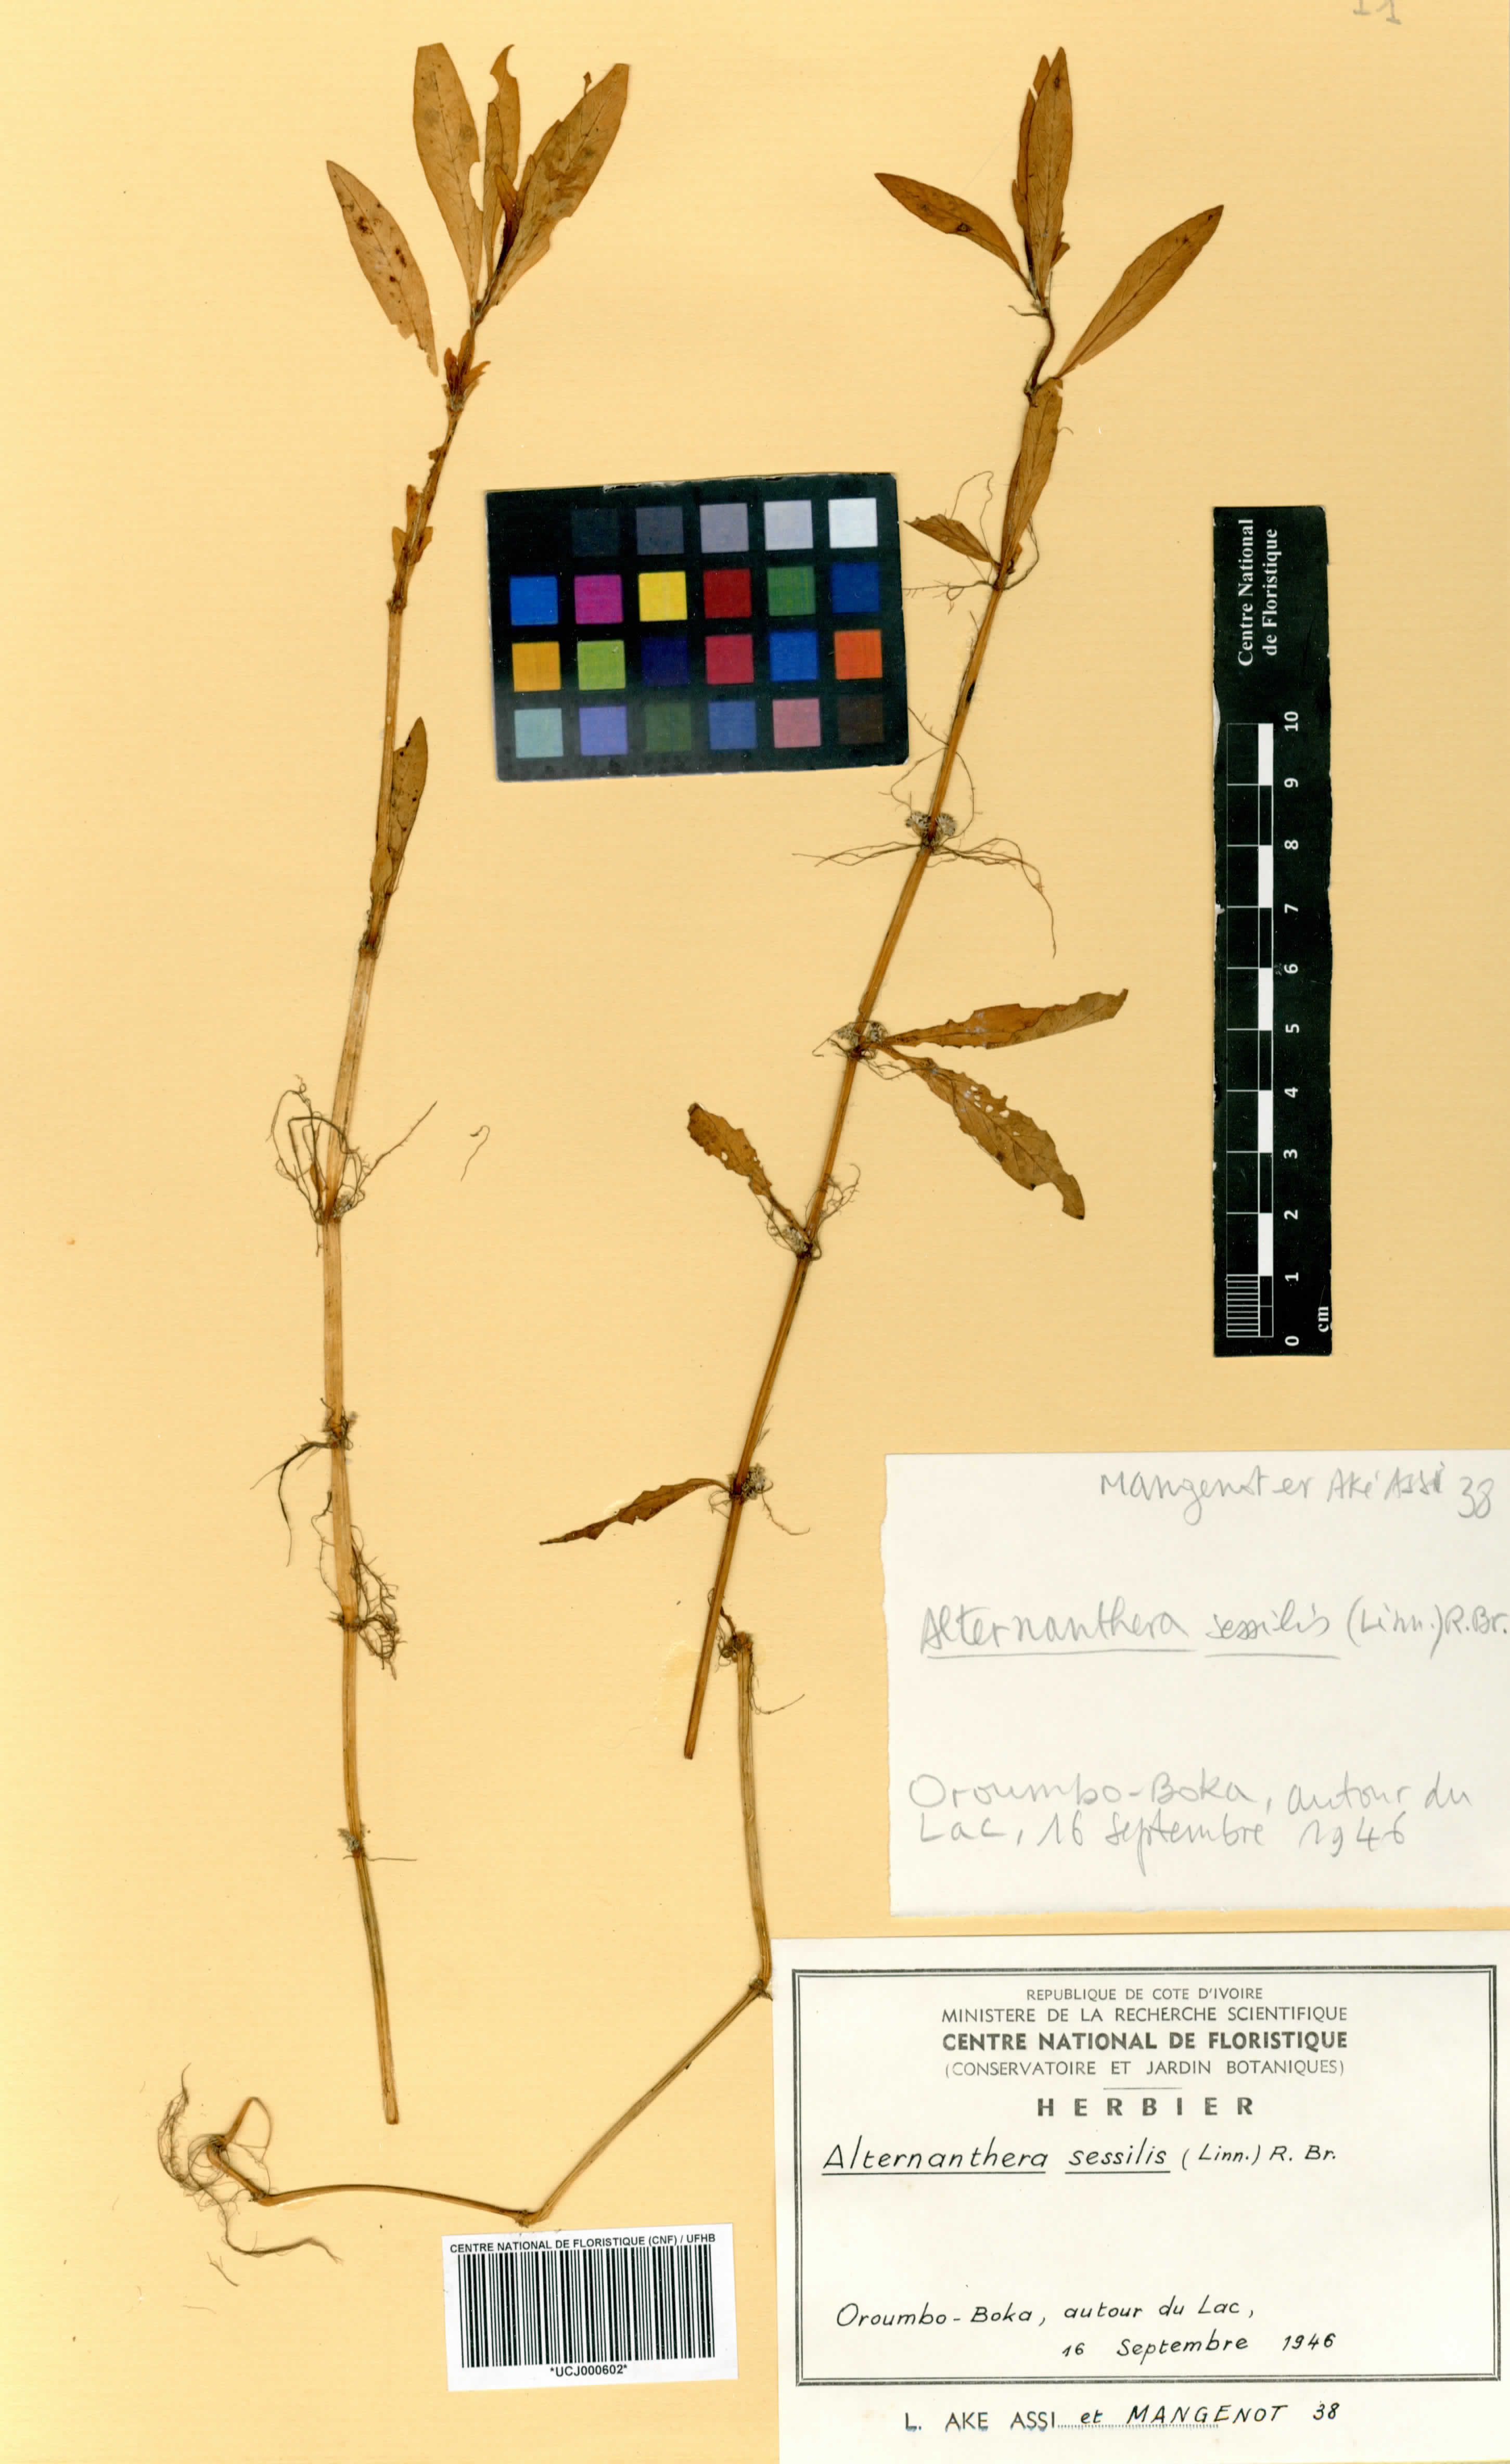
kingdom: Plantae
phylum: Tracheophyta
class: Magnoliopsida
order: Caryophyllales
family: Amaranthaceae
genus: Alternanthera
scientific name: Alternanthera sessilis
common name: Sessile joyweed
